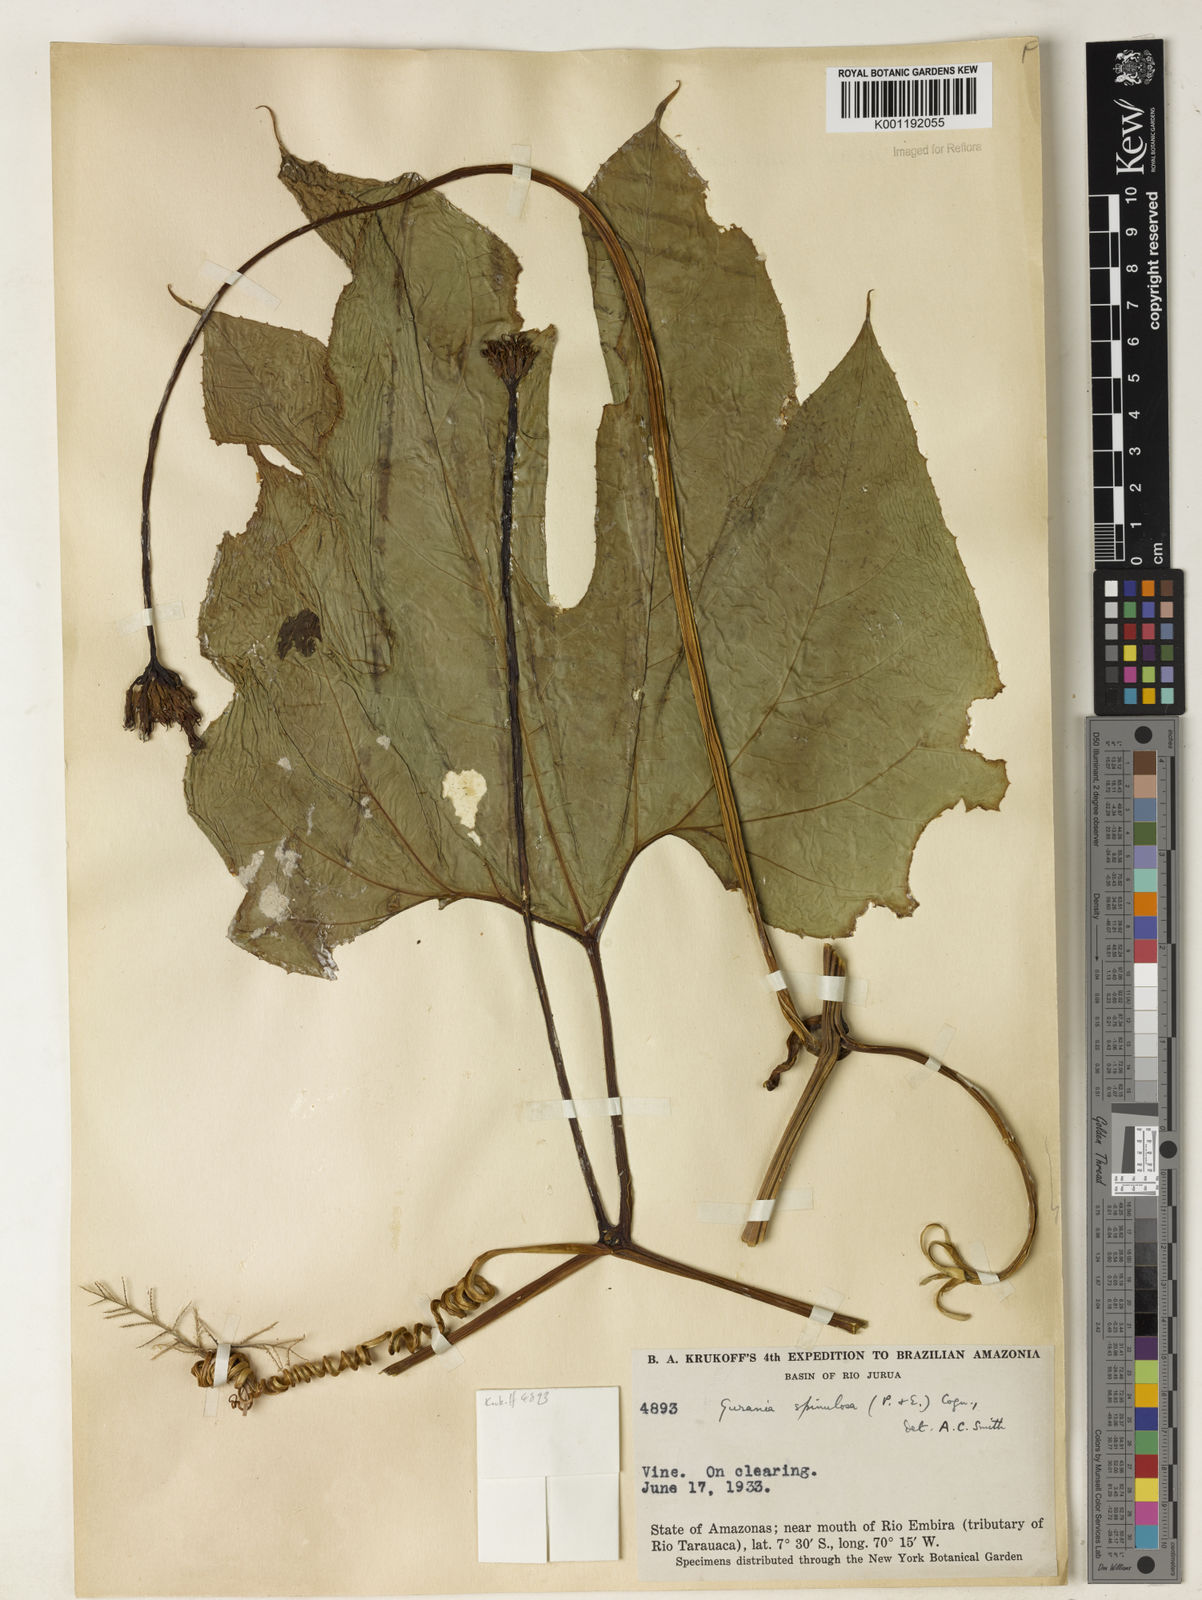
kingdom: Plantae
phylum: Tracheophyta
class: Magnoliopsida
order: Cucurbitales
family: Cucurbitaceae
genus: Gurania
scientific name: Gurania lobata
